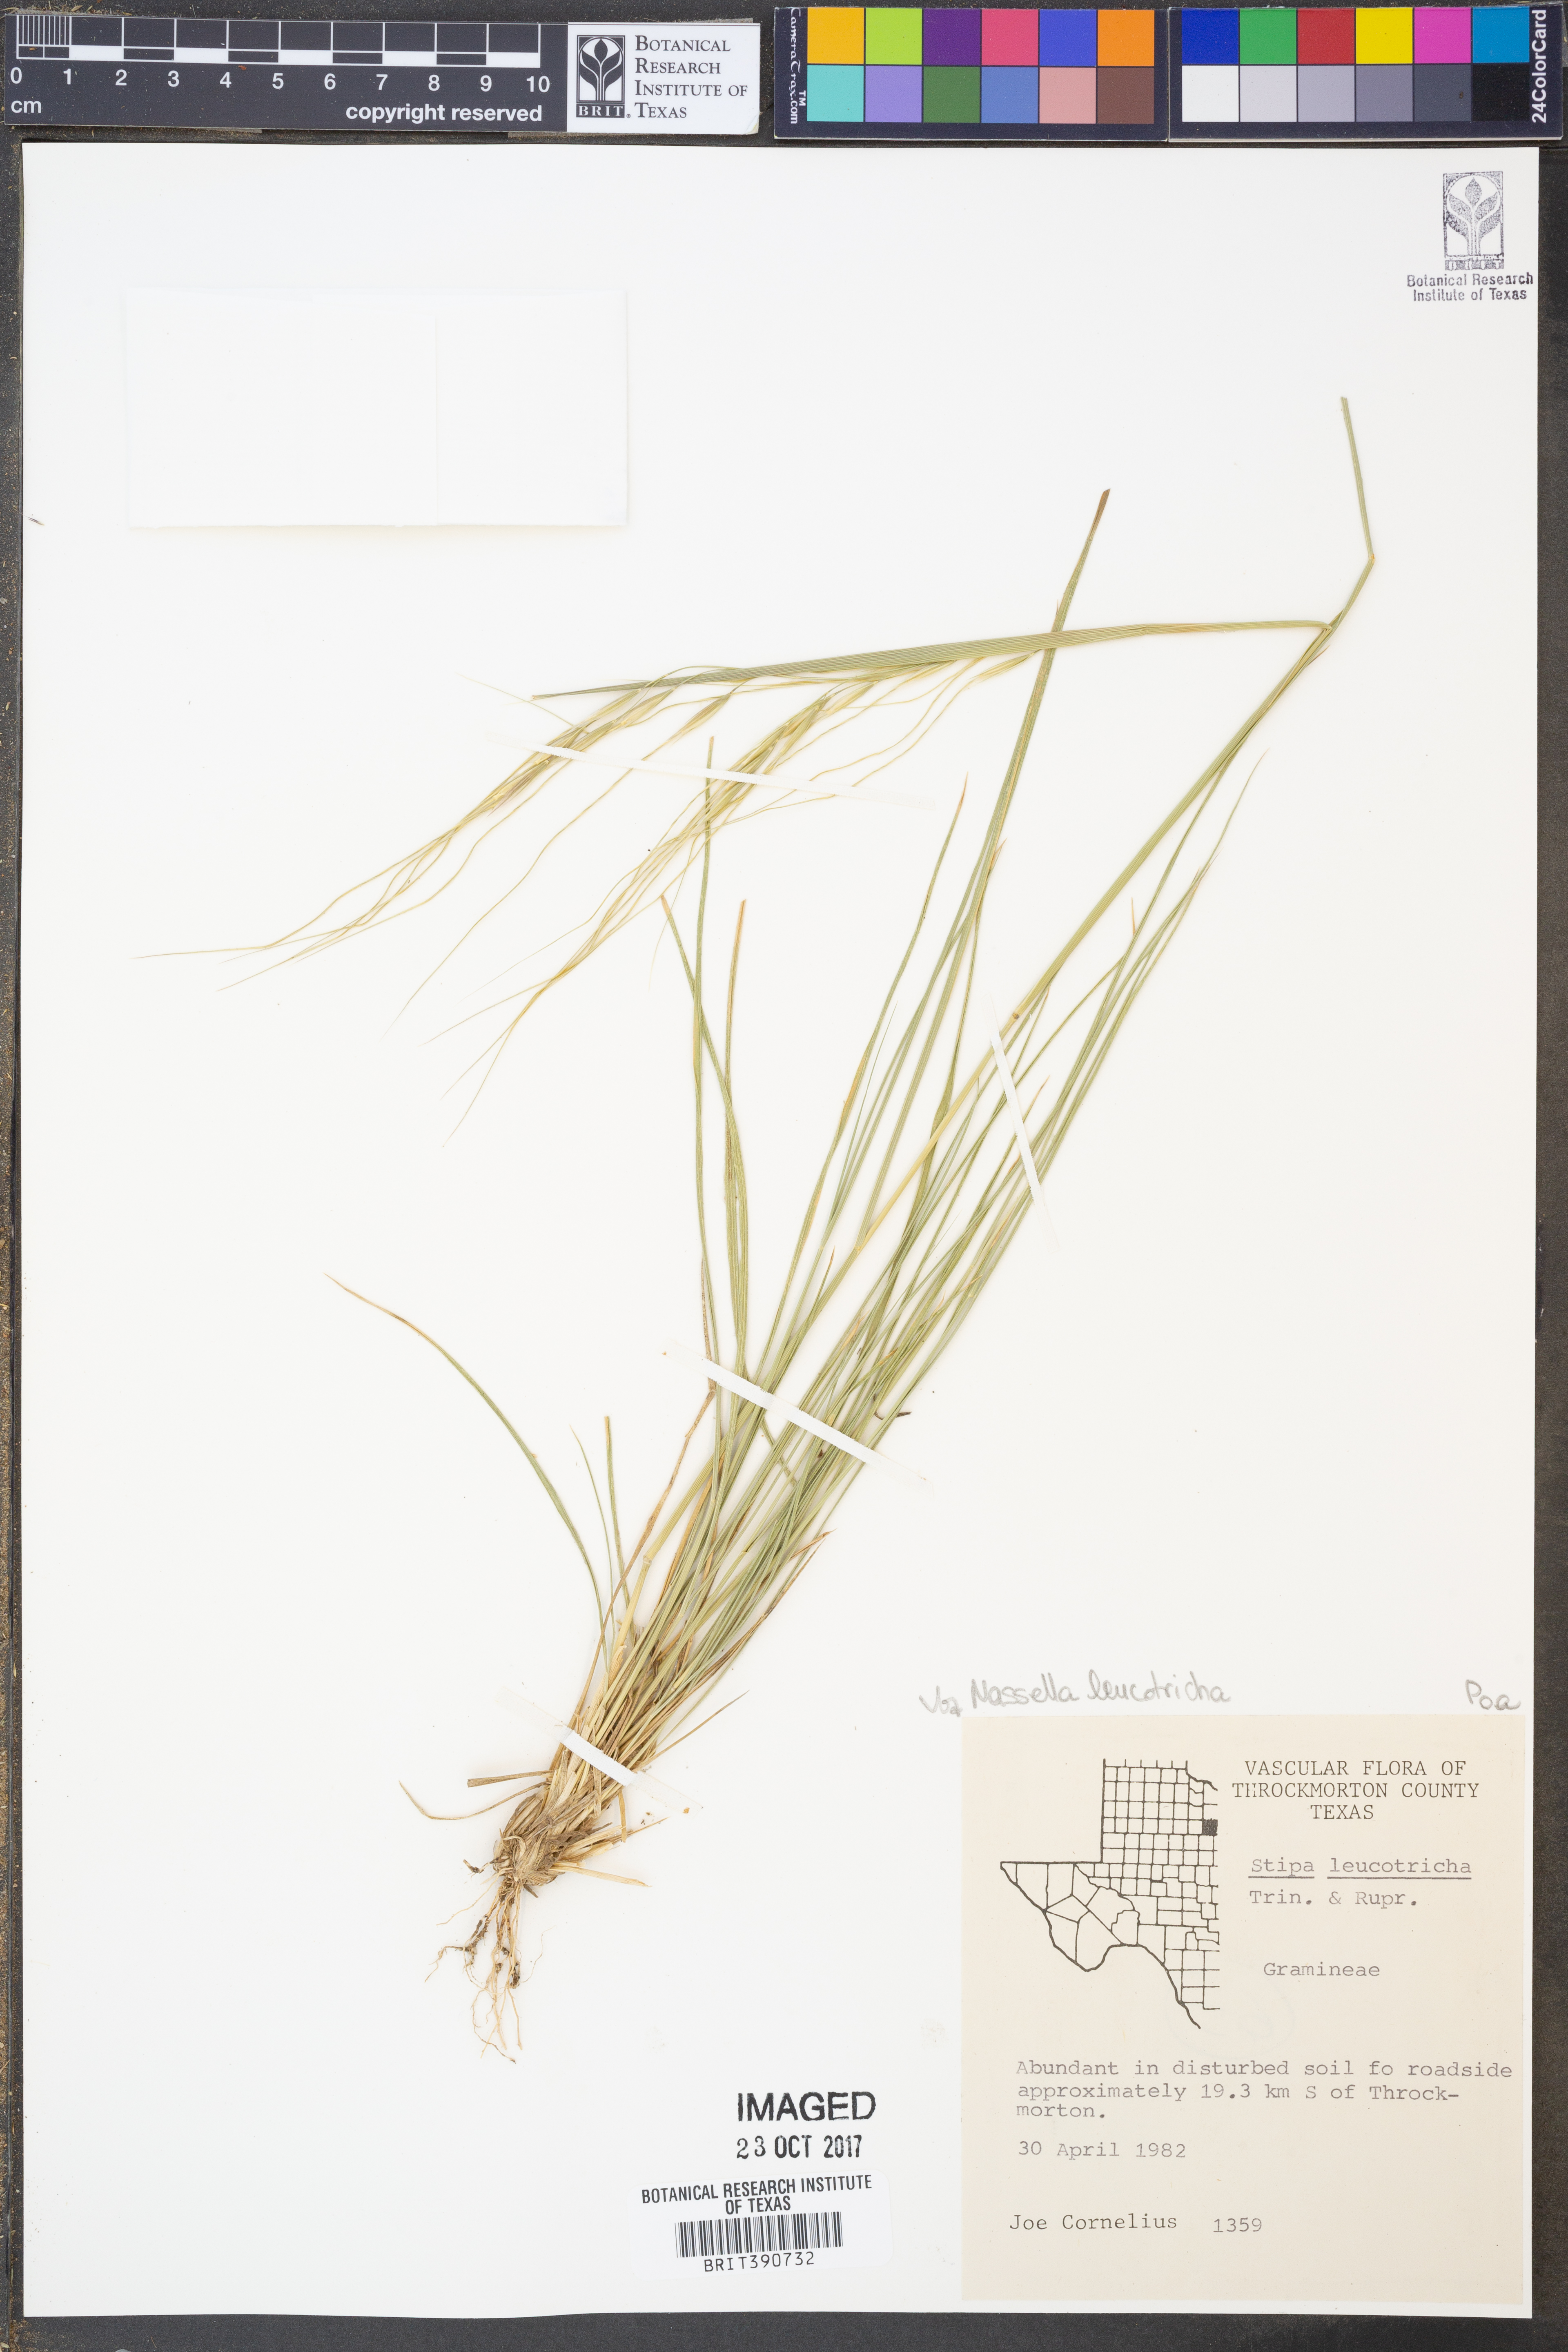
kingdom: Plantae
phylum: Tracheophyta
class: Liliopsida
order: Poales
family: Poaceae
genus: Nassella
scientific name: Nassella leucotricha
